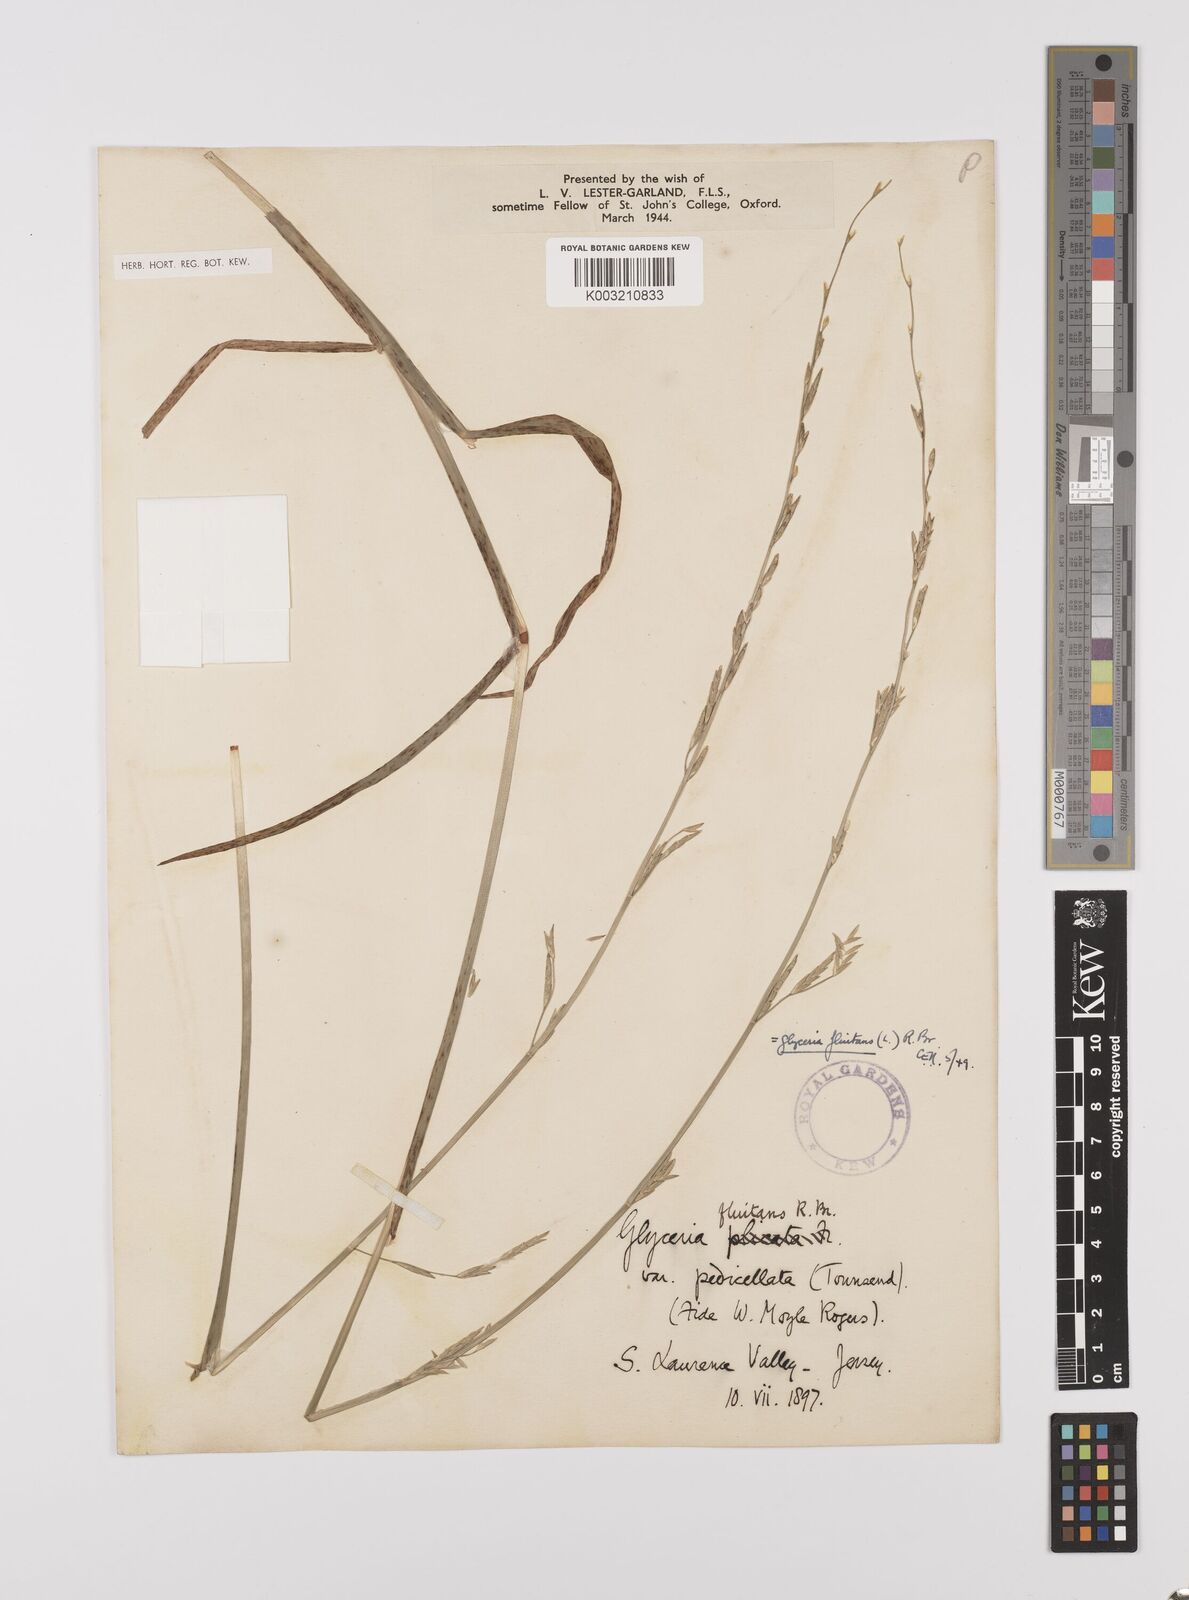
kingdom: Plantae
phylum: Tracheophyta
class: Liliopsida
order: Poales
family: Poaceae
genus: Glyceria
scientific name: Glyceria fluitans
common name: Floating sweet-grass
